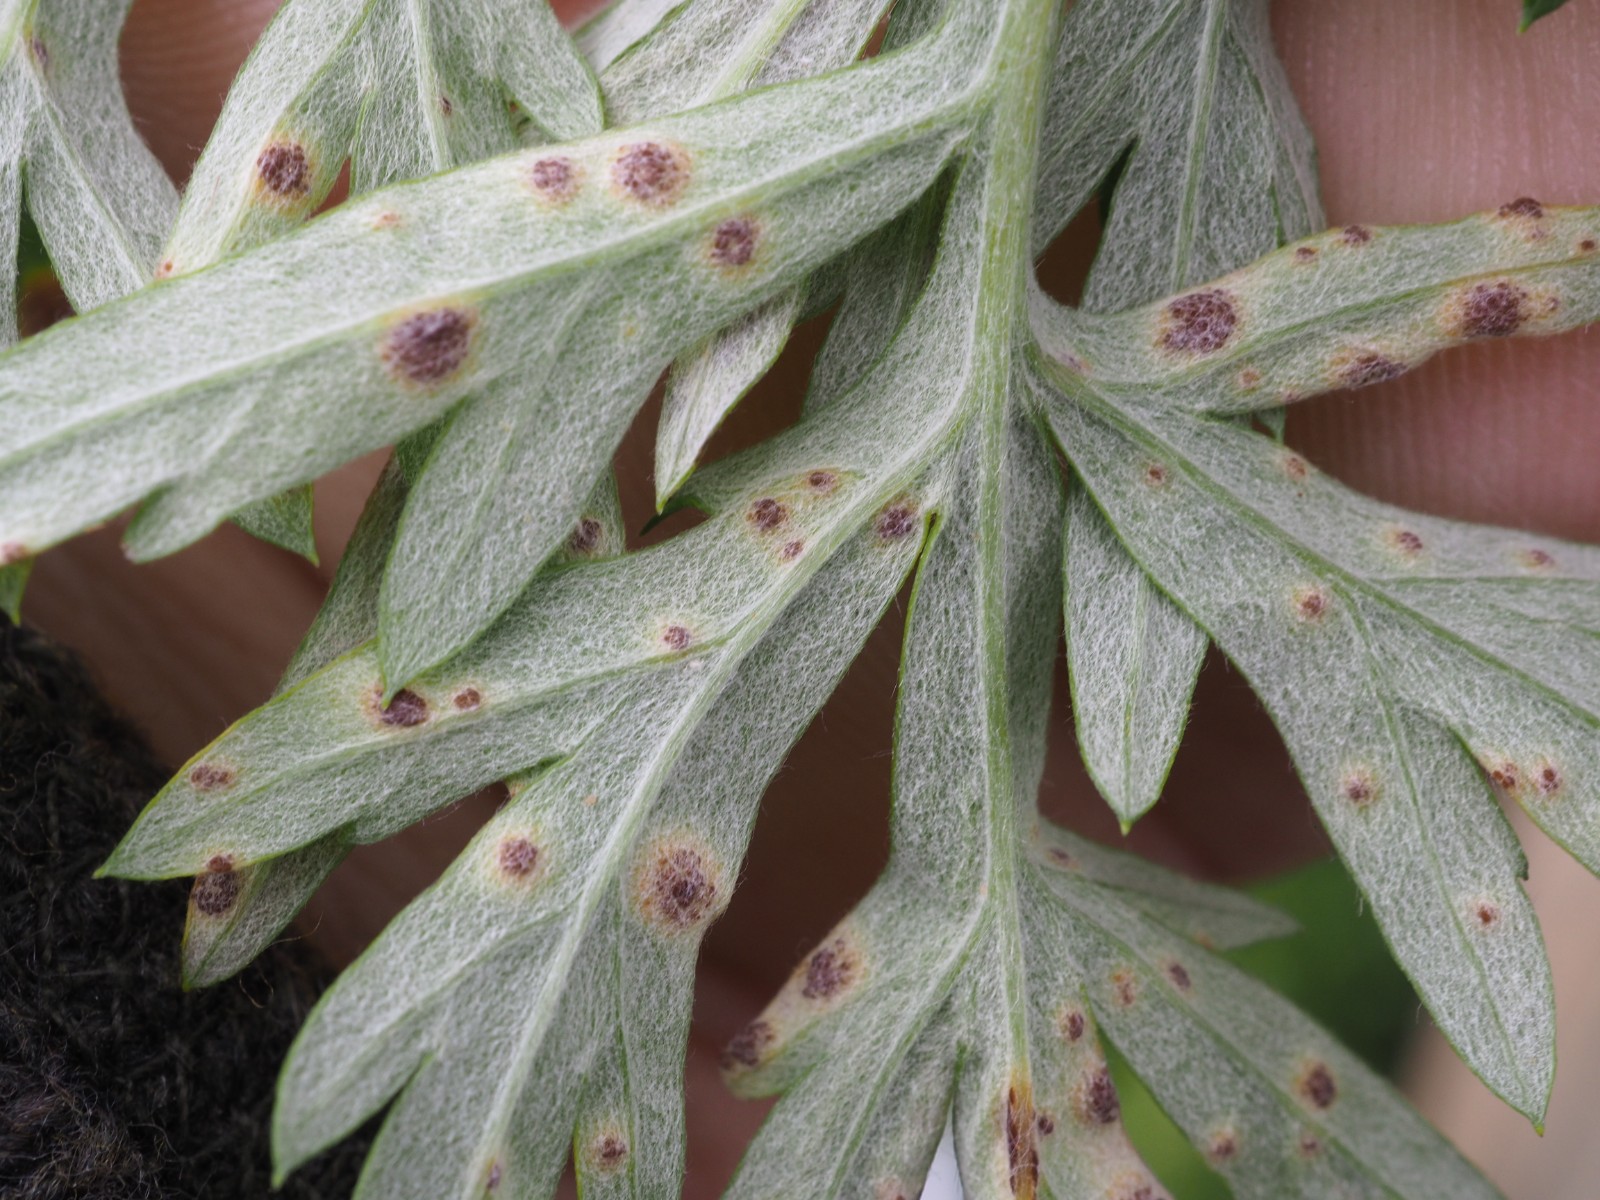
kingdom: Fungi
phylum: Basidiomycota
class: Pucciniomycetes
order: Pucciniales
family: Pucciniaceae
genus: Puccinia
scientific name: Puccinia tanaceti
